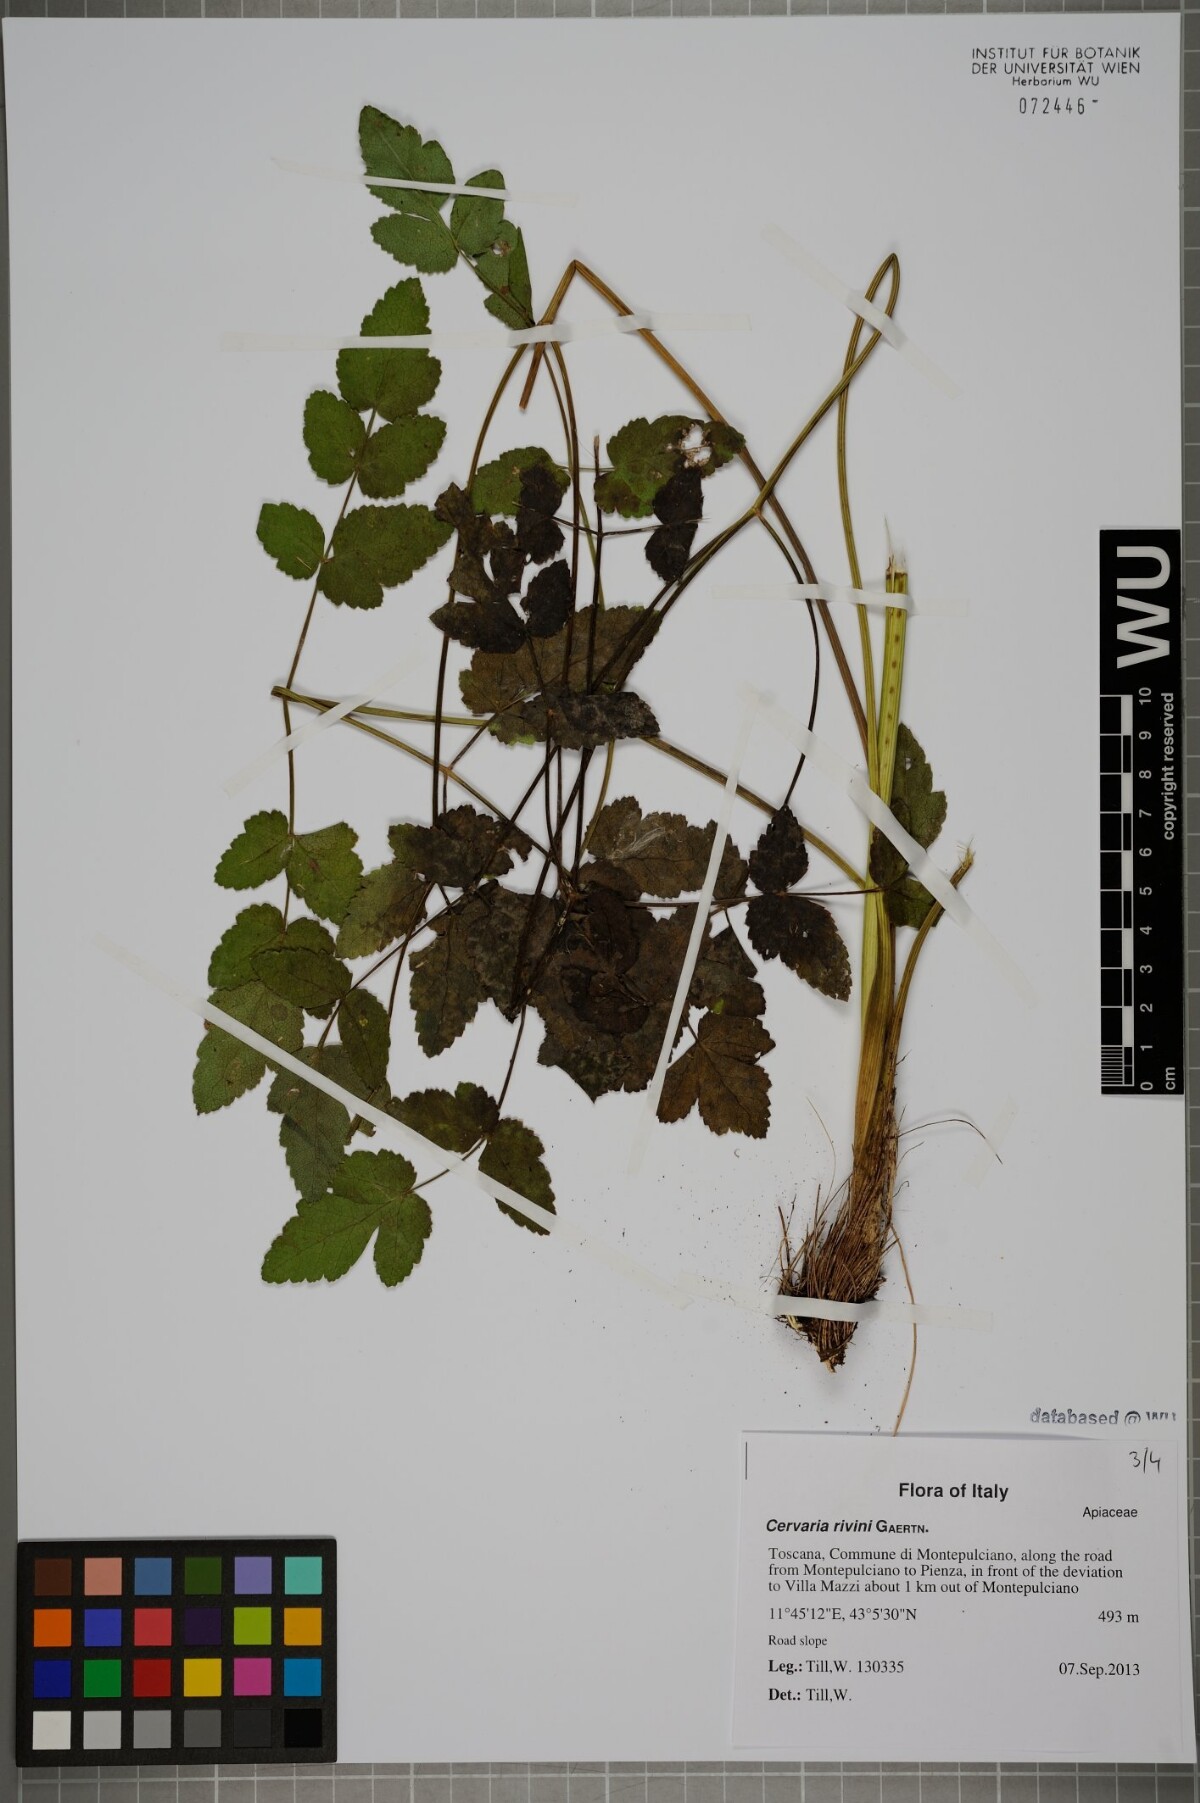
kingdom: Plantae
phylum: Tracheophyta
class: Magnoliopsida
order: Apiales
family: Apiaceae
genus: Cervaria
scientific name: Cervaria rivini
